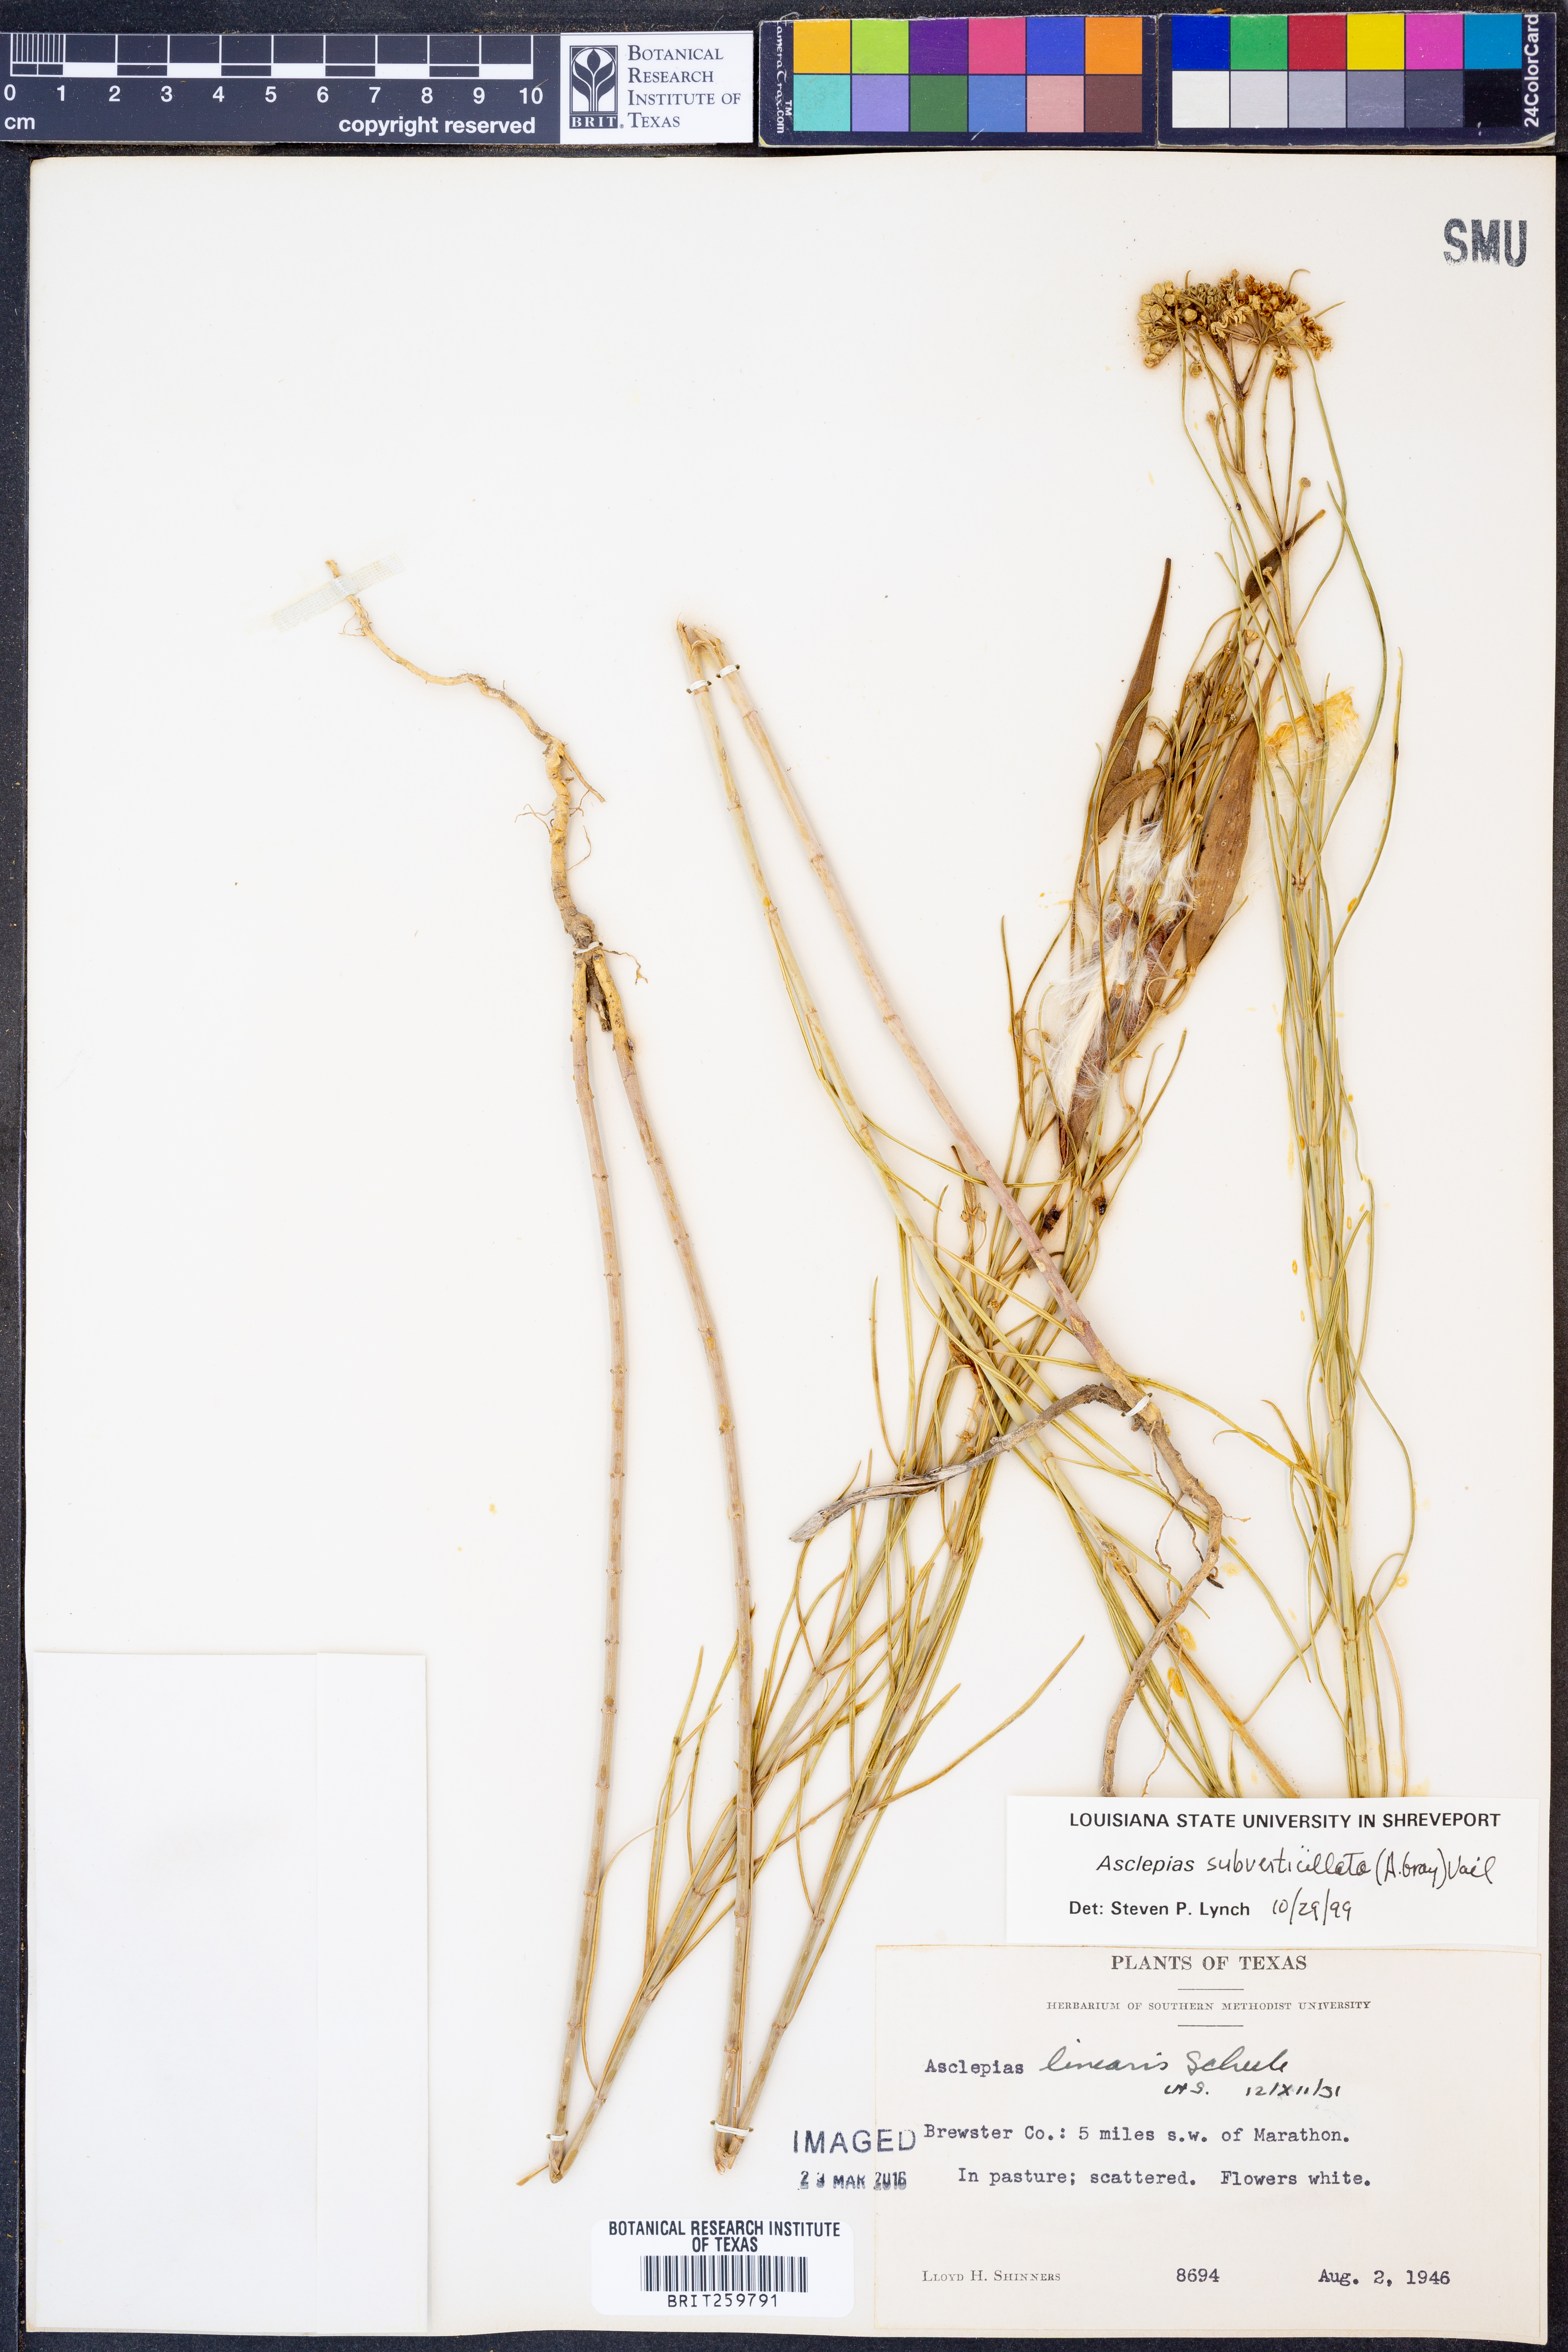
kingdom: Plantae
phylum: Tracheophyta
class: Magnoliopsida
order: Gentianales
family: Apocynaceae
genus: Asclepias
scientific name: Asclepias subverticillata
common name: Horsetail milkweed
